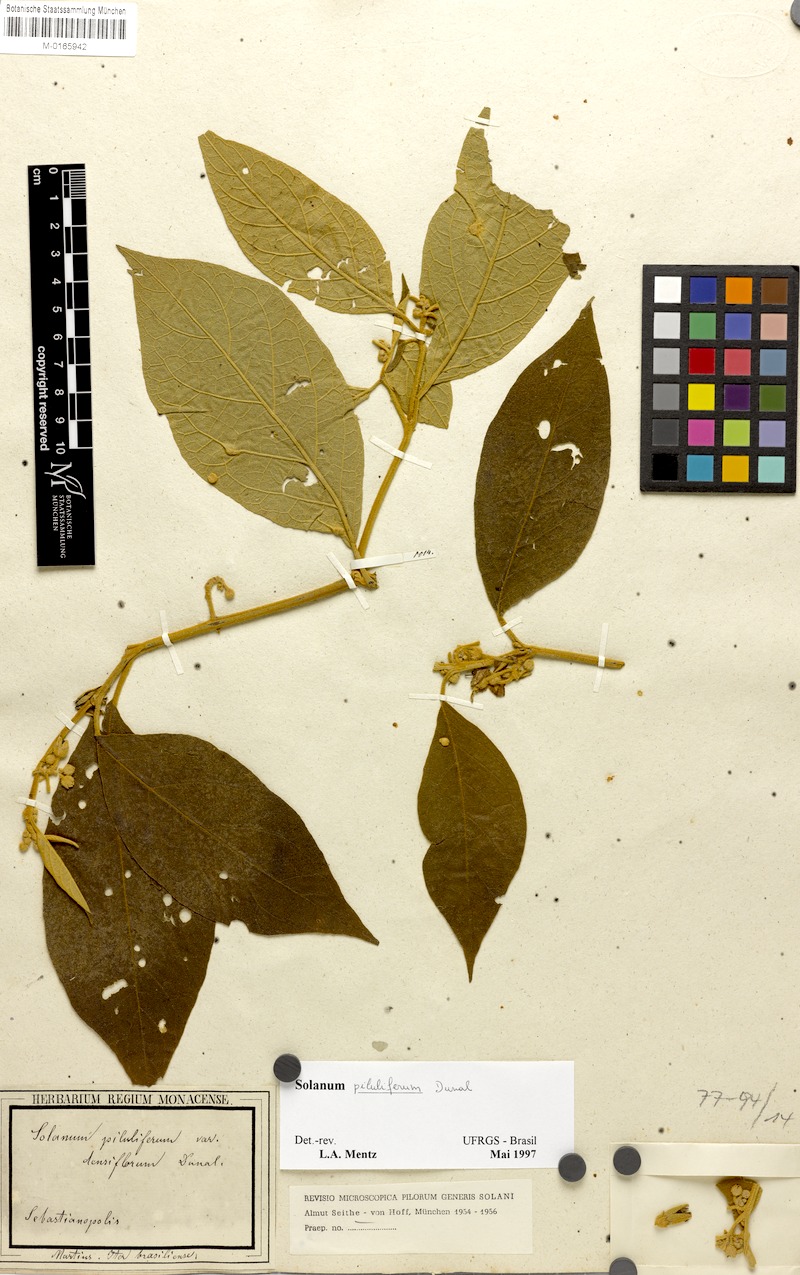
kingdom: Plantae
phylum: Tracheophyta
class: Magnoliopsida
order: Solanales
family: Solanaceae
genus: Solanum
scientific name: Solanum piluliferum
